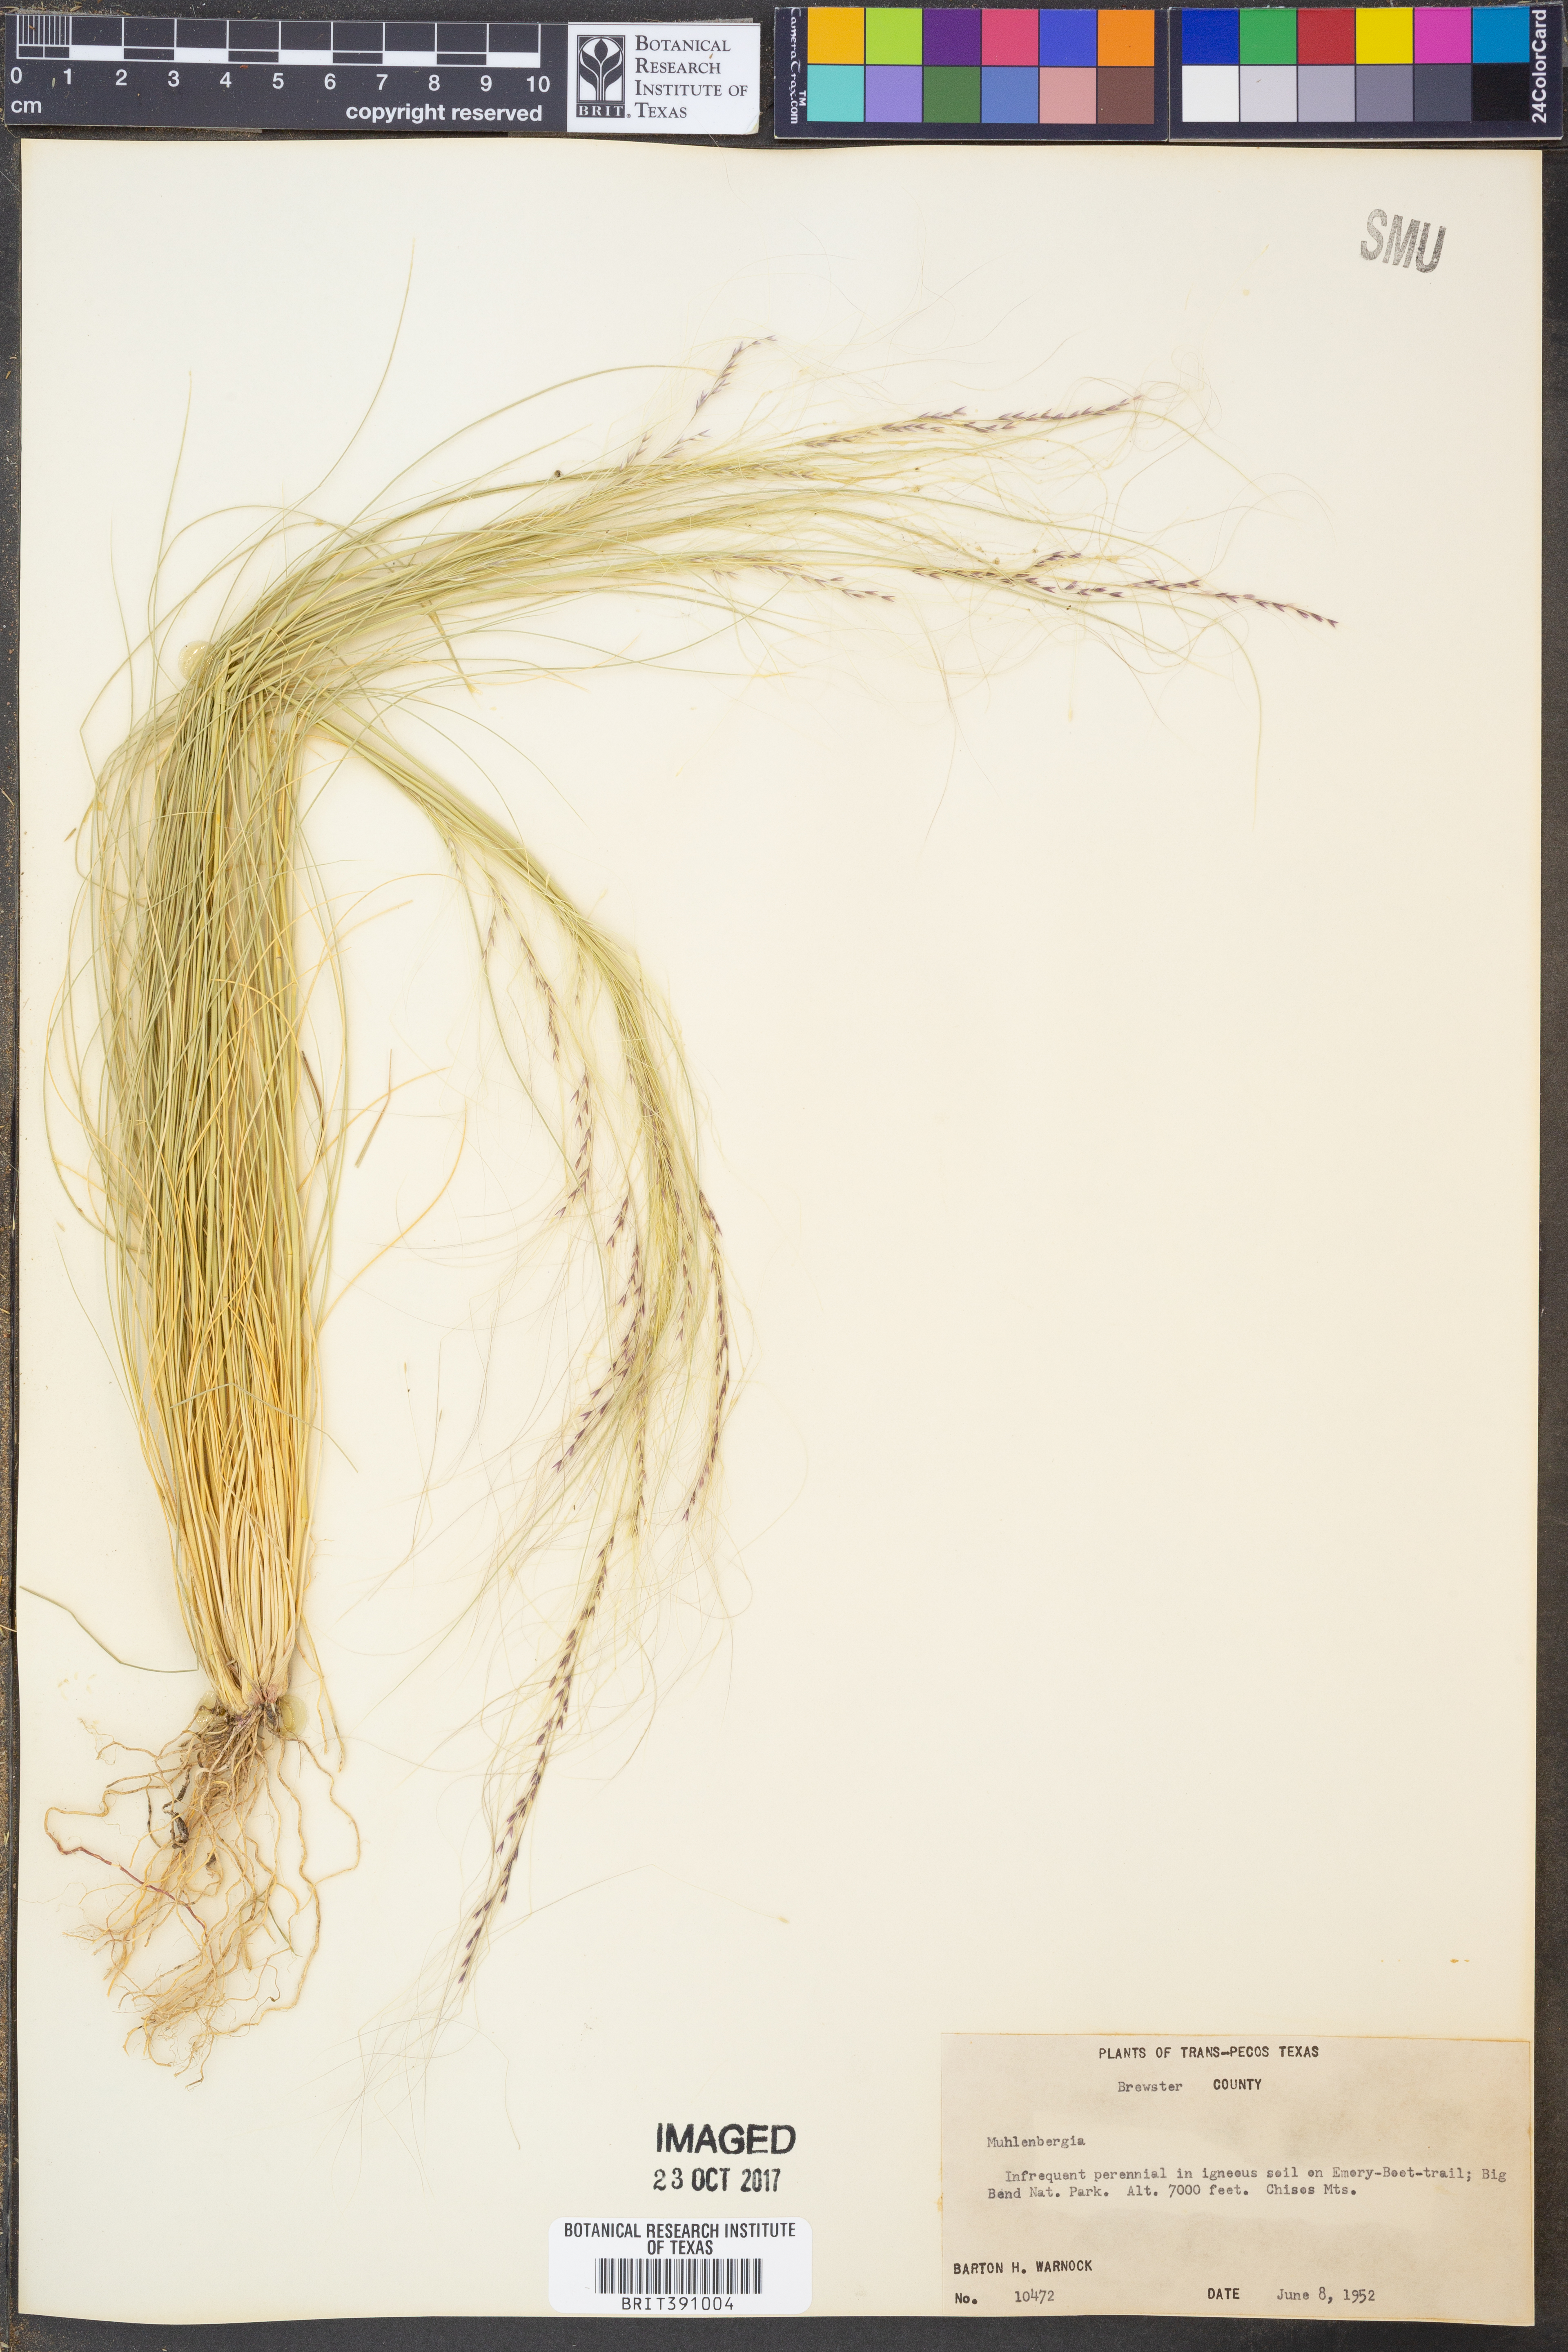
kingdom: Plantae
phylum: Tracheophyta
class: Liliopsida
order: Poales
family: Poaceae
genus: Muhlenbergia
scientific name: Muhlenbergia
